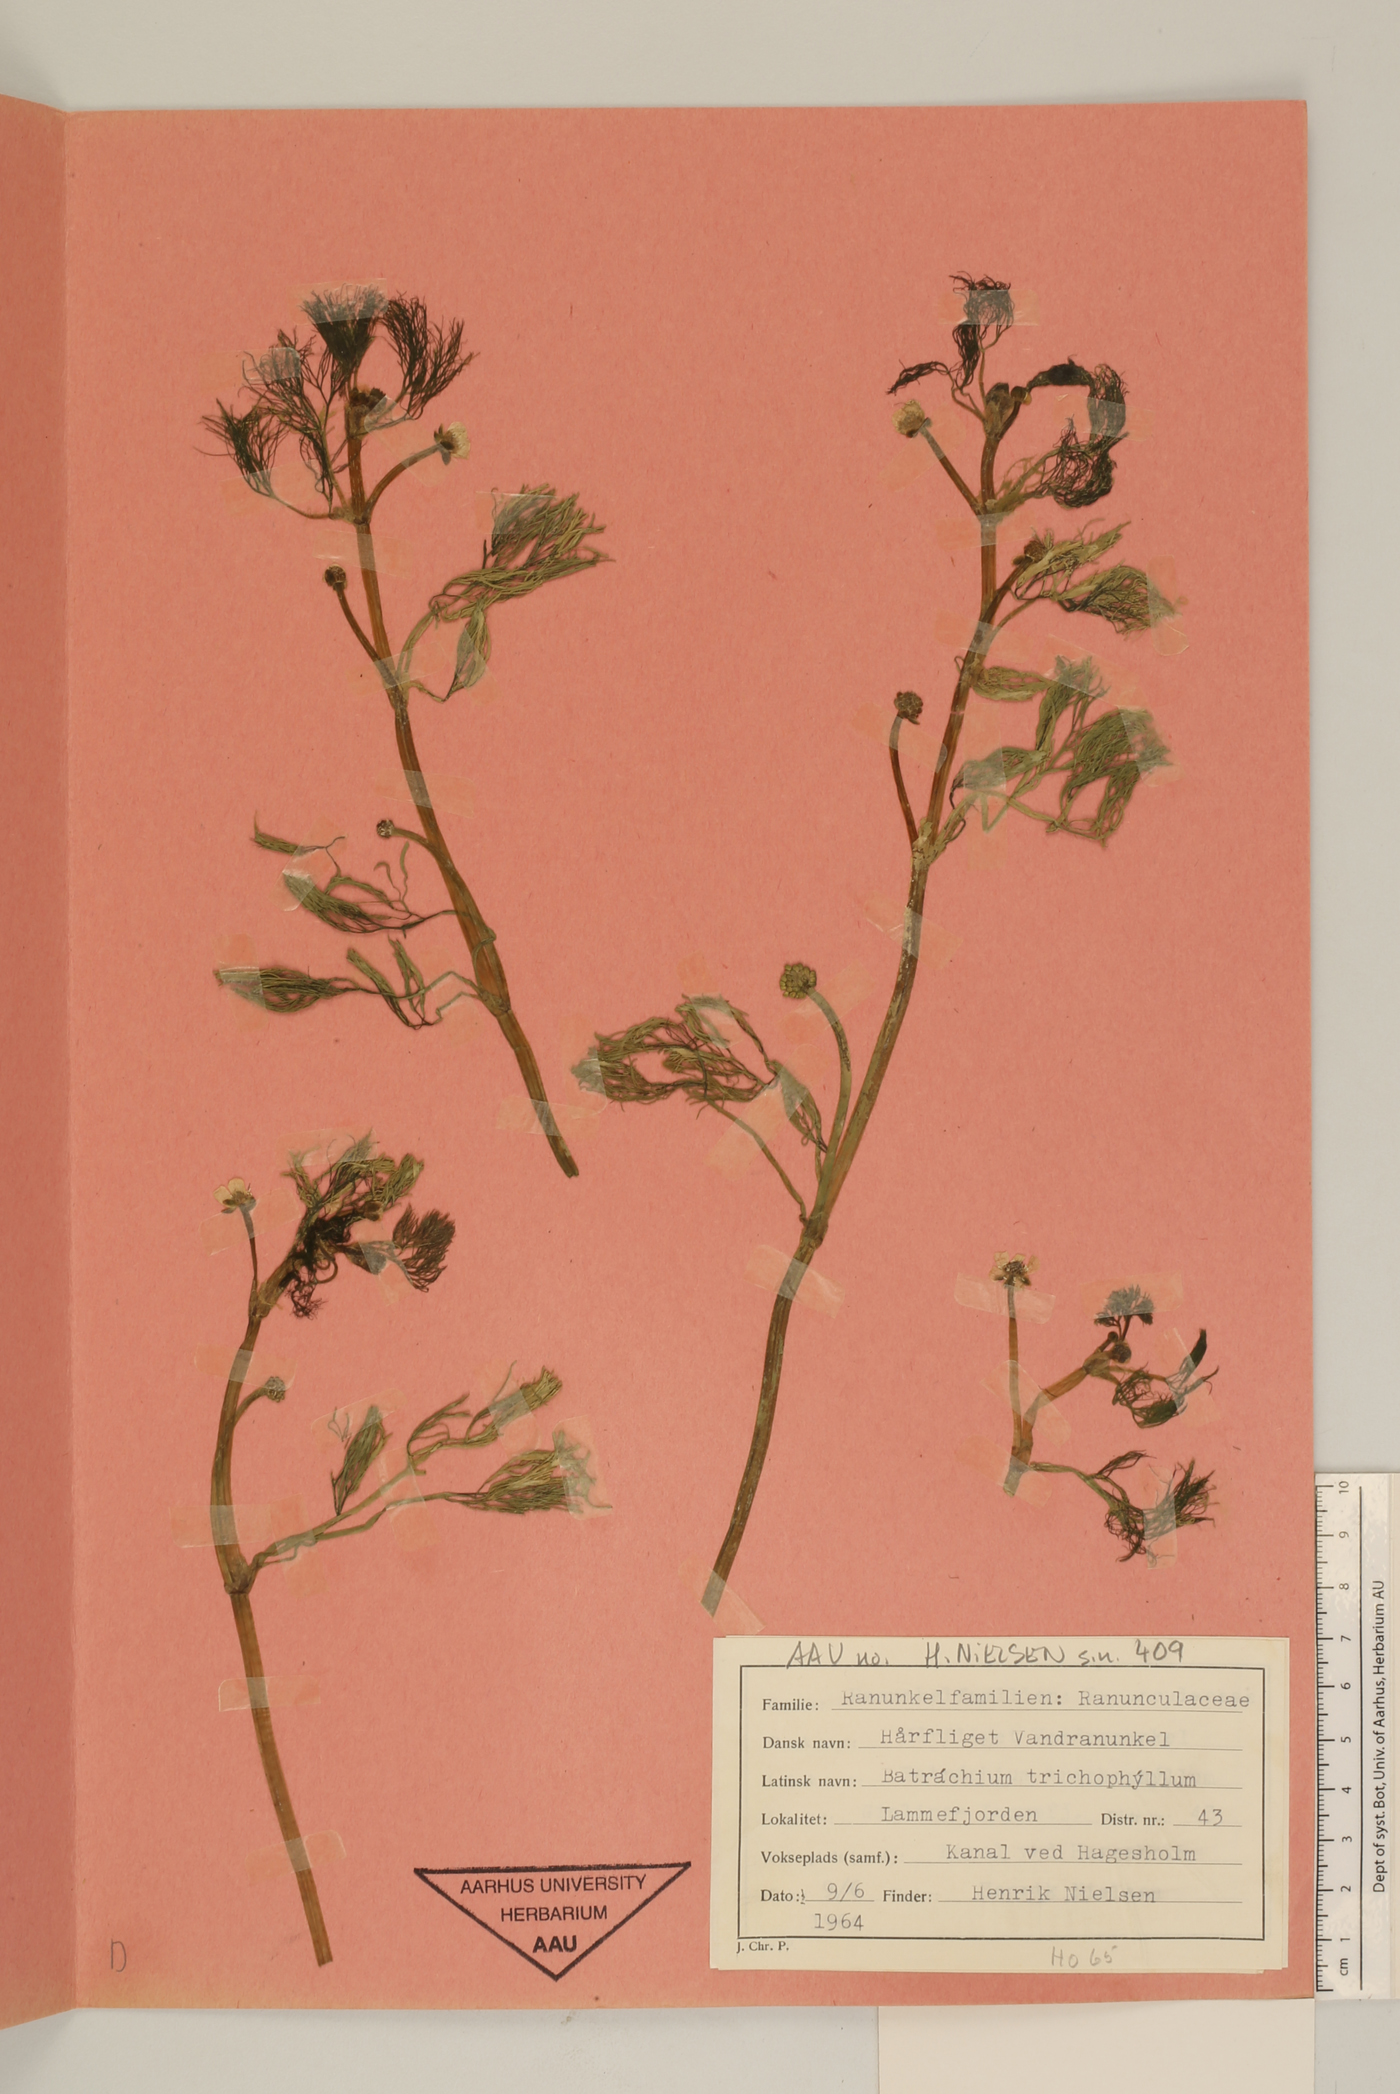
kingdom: Plantae
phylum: Tracheophyta
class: Magnoliopsida
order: Ranunculales
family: Ranunculaceae
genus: Ranunculus
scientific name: Ranunculus trichophyllus
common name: Thread-leaved water-crowfoot
